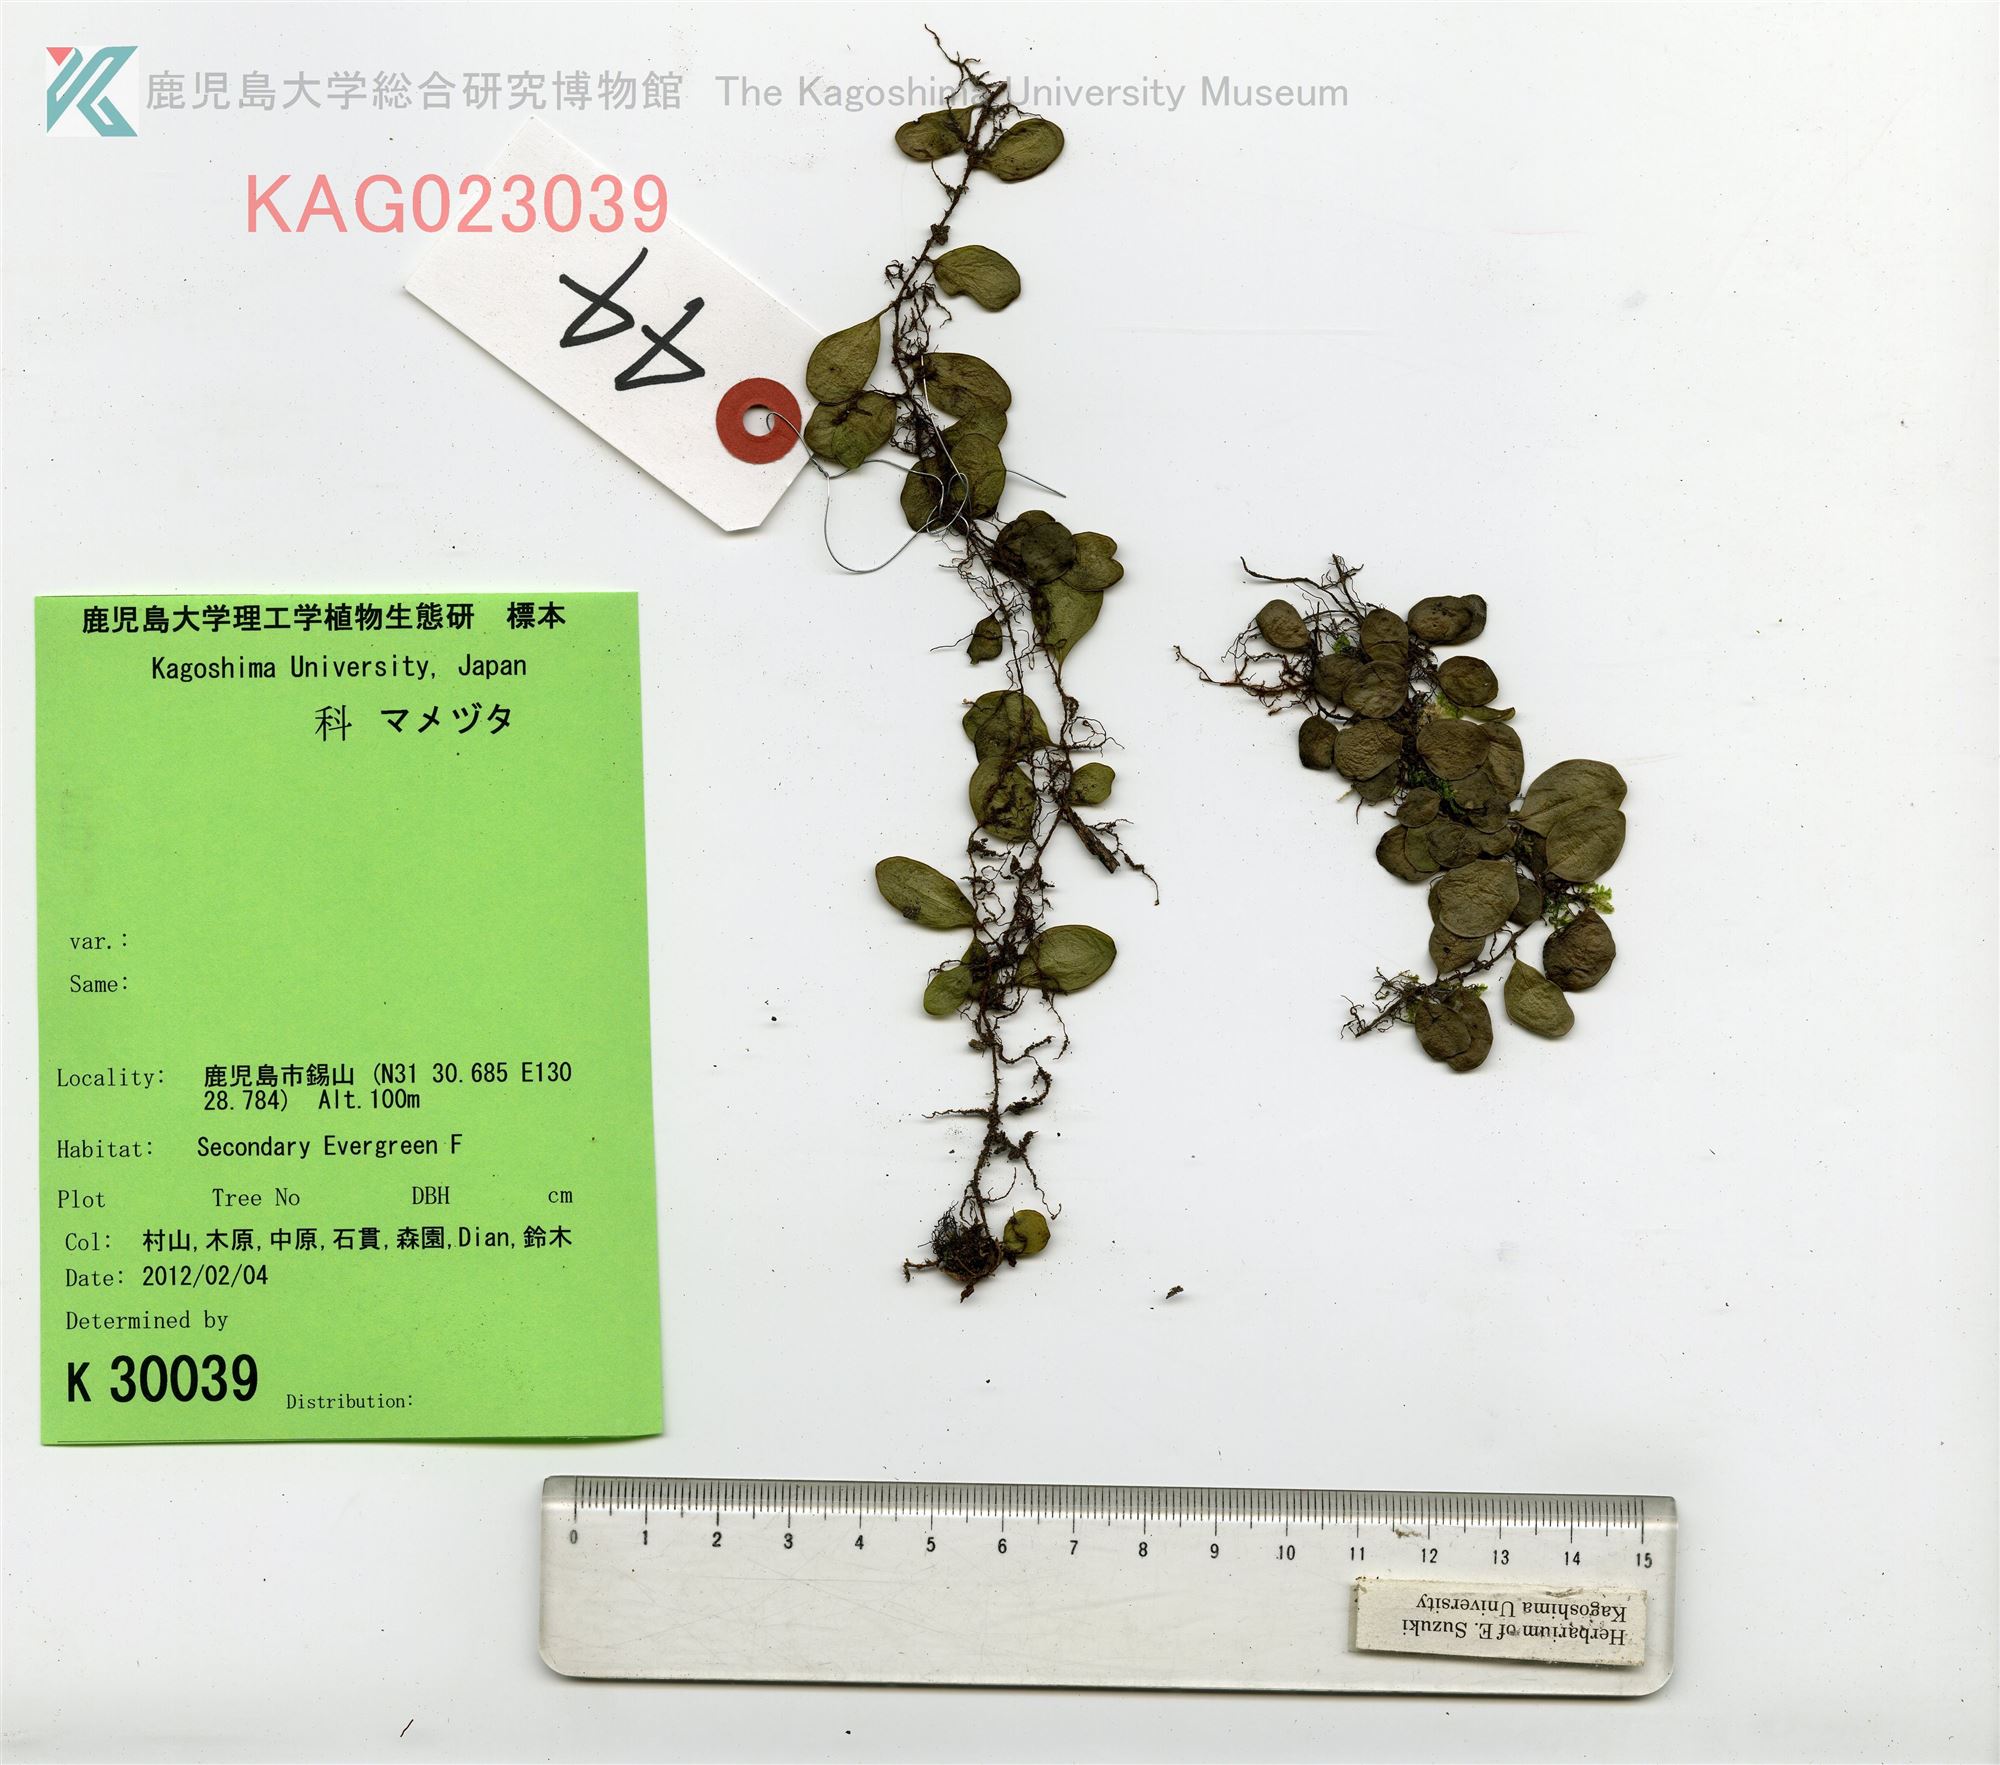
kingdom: Plantae
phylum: Tracheophyta
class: Polypodiopsida
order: Polypodiales
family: Polypodiaceae
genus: Lepisorus
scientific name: Lepisorus microphyllus
